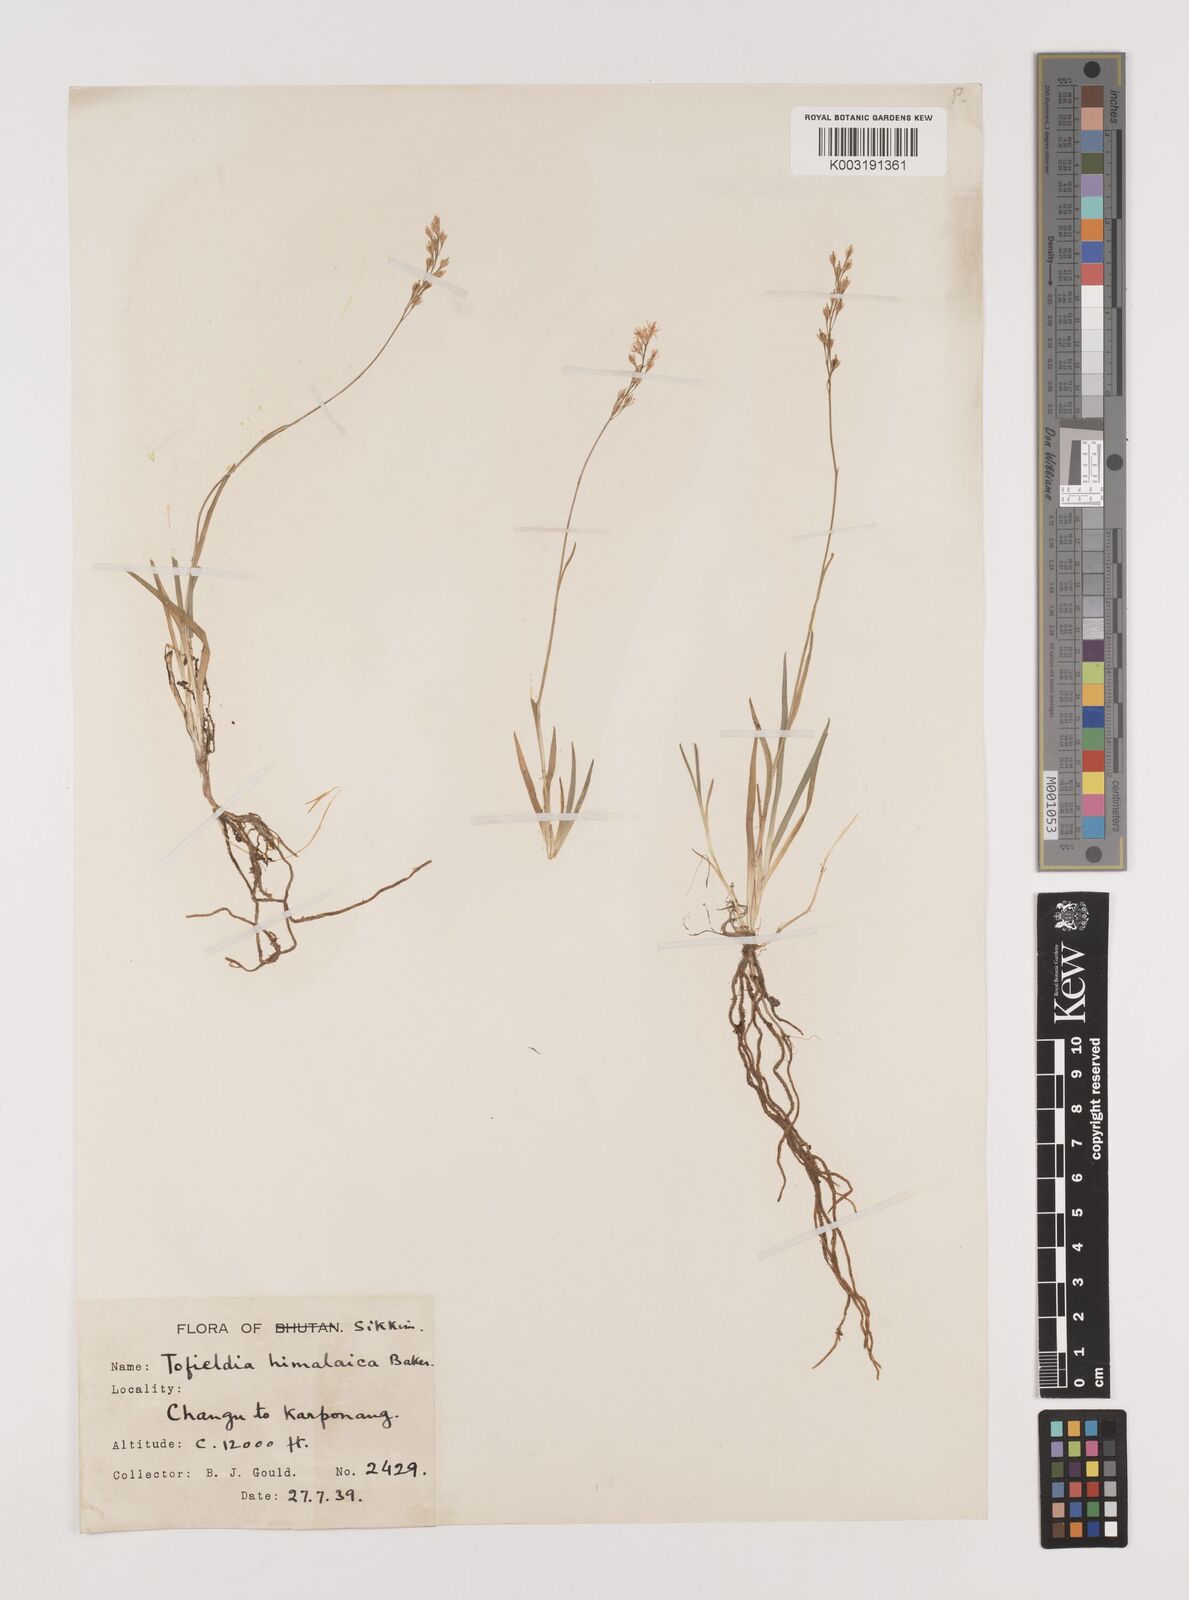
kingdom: Plantae
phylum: Tracheophyta
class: Liliopsida
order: Alismatales
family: Tofieldiaceae
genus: Tofieldia
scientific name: Tofieldia himalaica
